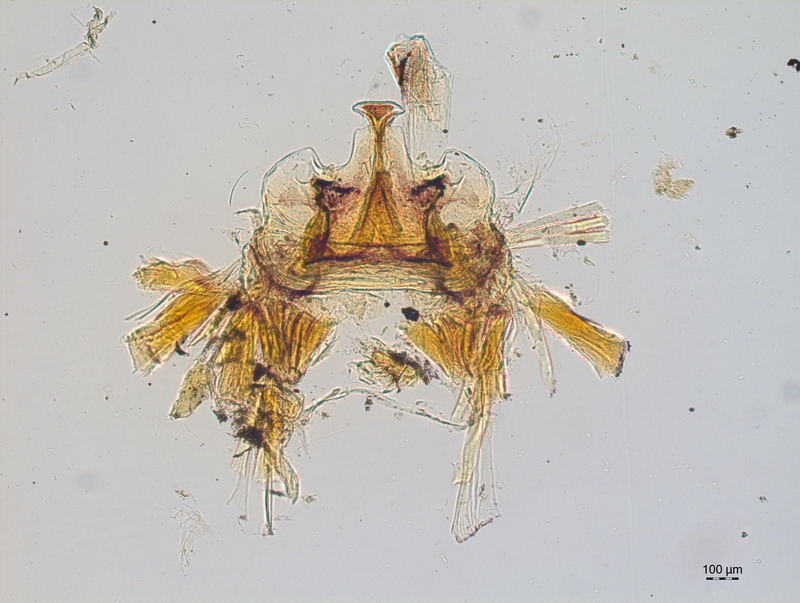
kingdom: Animalia
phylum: Arthropoda
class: Diplopoda
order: Chordeumatida
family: Craspedosomatidae
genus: Craspedosoma
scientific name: Craspedosoma doranum
